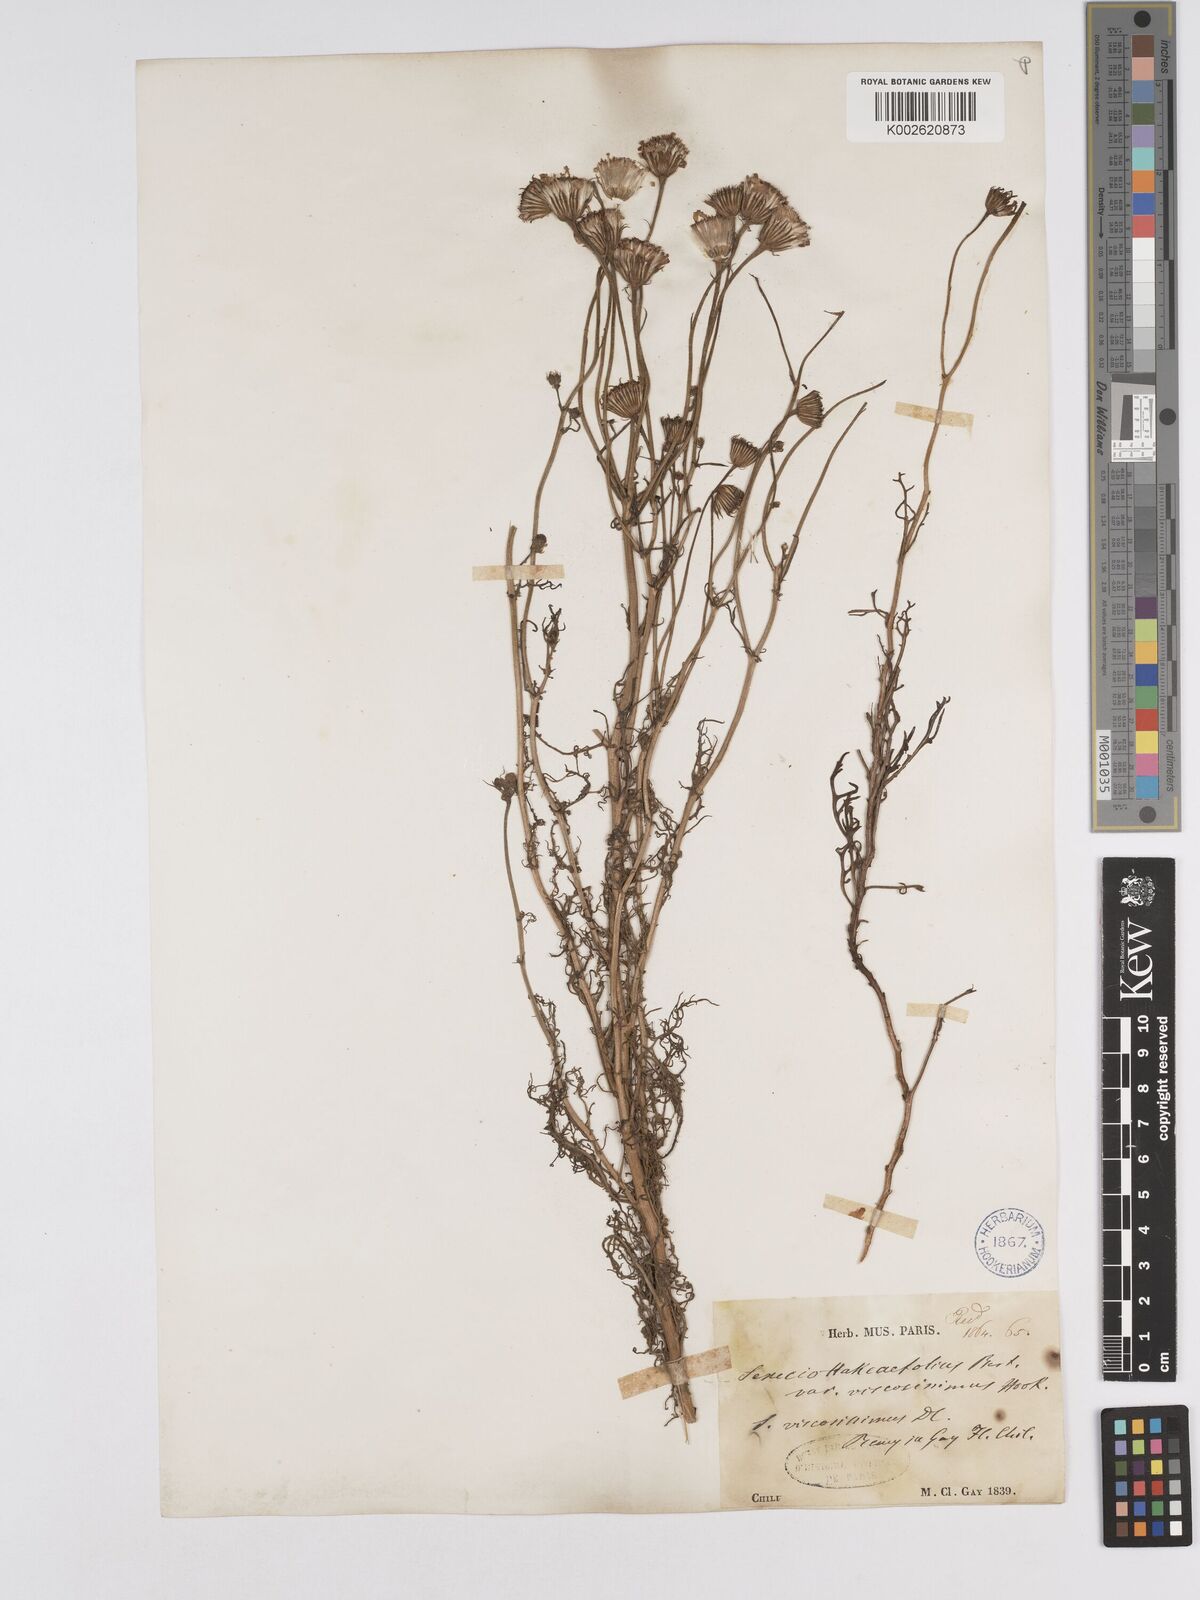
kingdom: Plantae
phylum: Tracheophyta
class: Magnoliopsida
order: Asterales
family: Asteraceae
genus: Senecio
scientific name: Senecio viscosissimus
